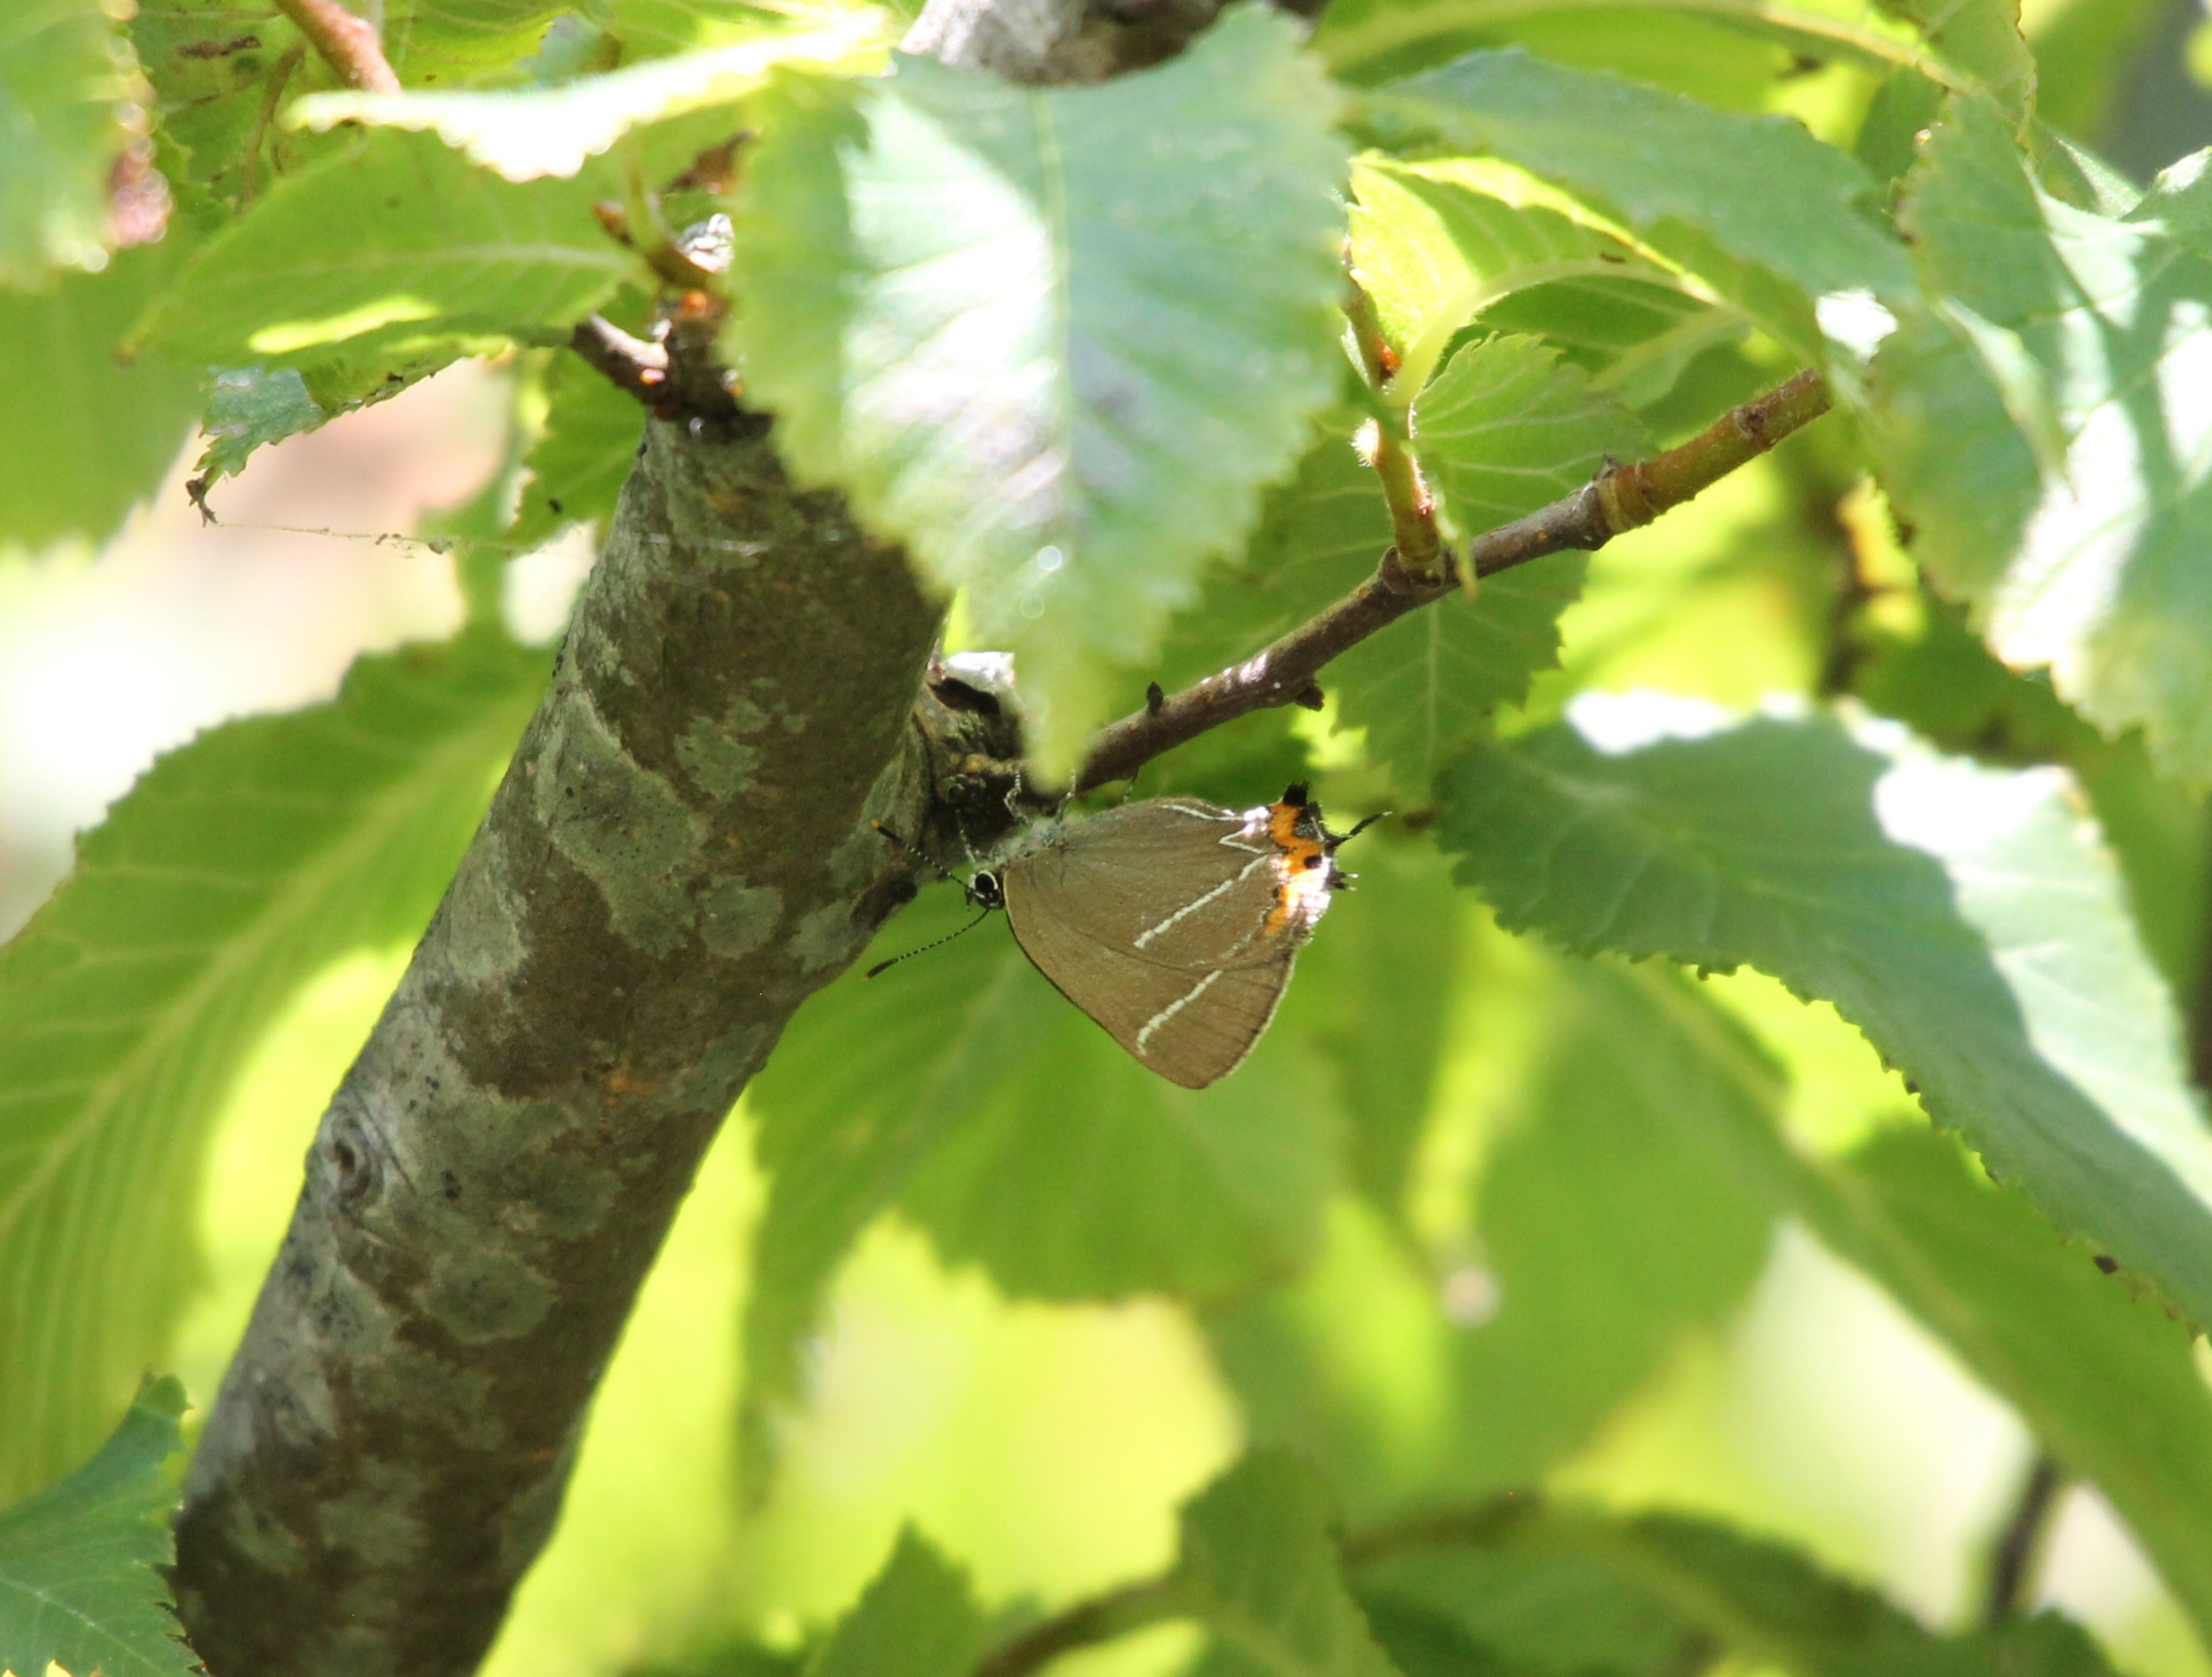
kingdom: Animalia
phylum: Arthropoda
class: Insecta
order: Lepidoptera
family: Lycaenidae
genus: Satyrium
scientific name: Satyrium w-album
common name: Det hvide W
